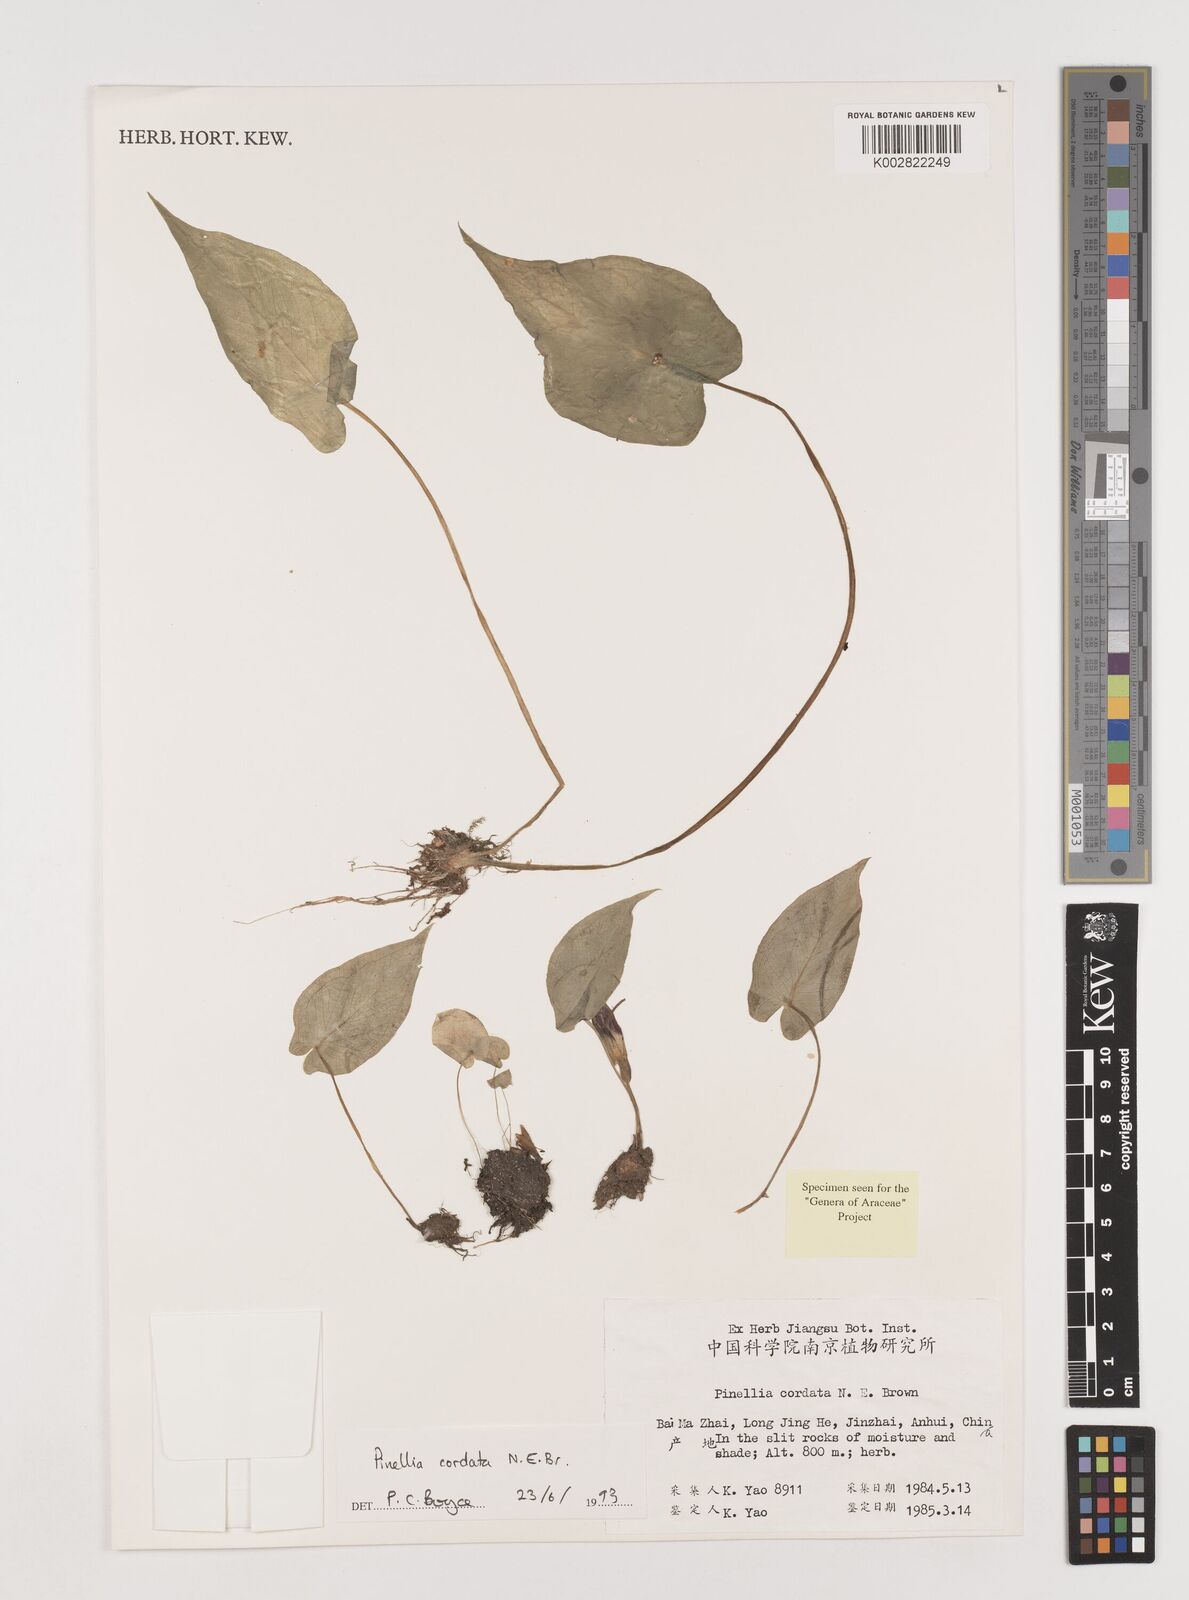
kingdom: Plantae
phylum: Tracheophyta
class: Liliopsida
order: Alismatales
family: Araceae
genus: Pinellia
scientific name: Pinellia cordata
